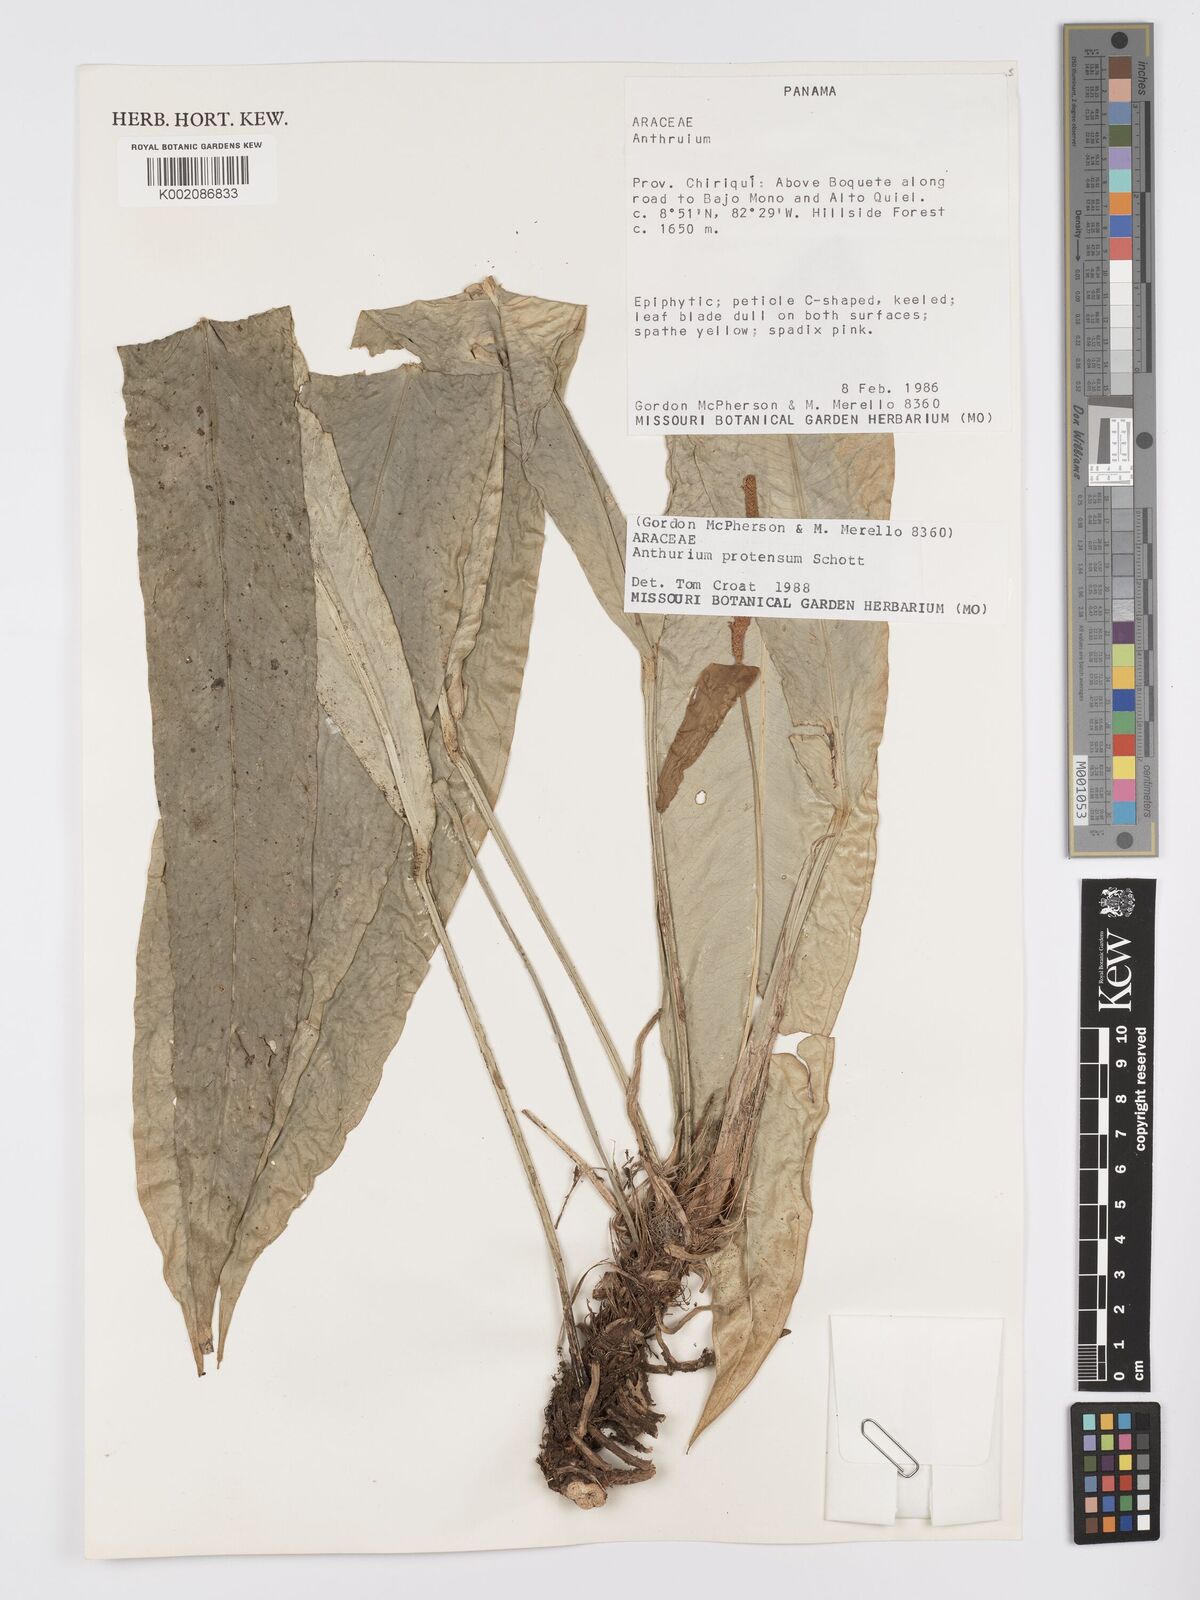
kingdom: Plantae
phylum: Tracheophyta
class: Liliopsida
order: Alismatales
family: Araceae
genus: Anthurium
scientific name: Anthurium protensum
